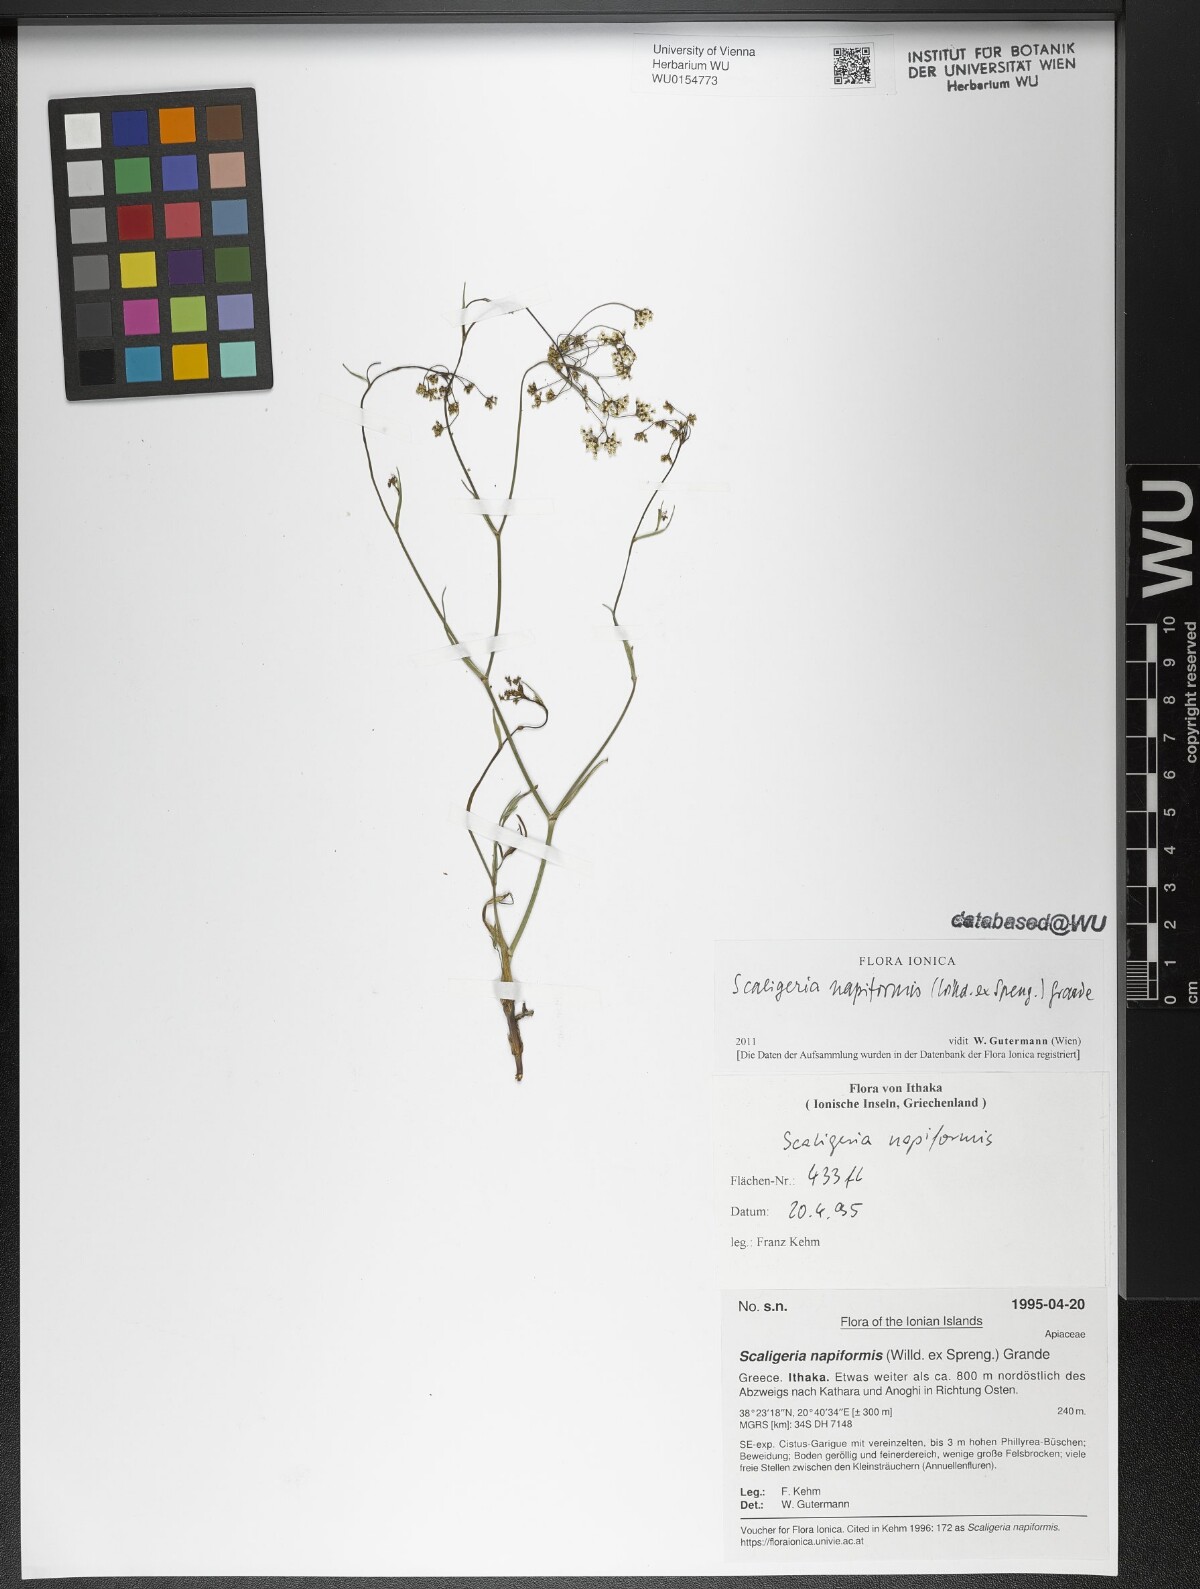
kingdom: Plantae
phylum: Tracheophyta
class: Magnoliopsida
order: Apiales
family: Apiaceae
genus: Scaligeria
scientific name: Scaligeria napiformis
